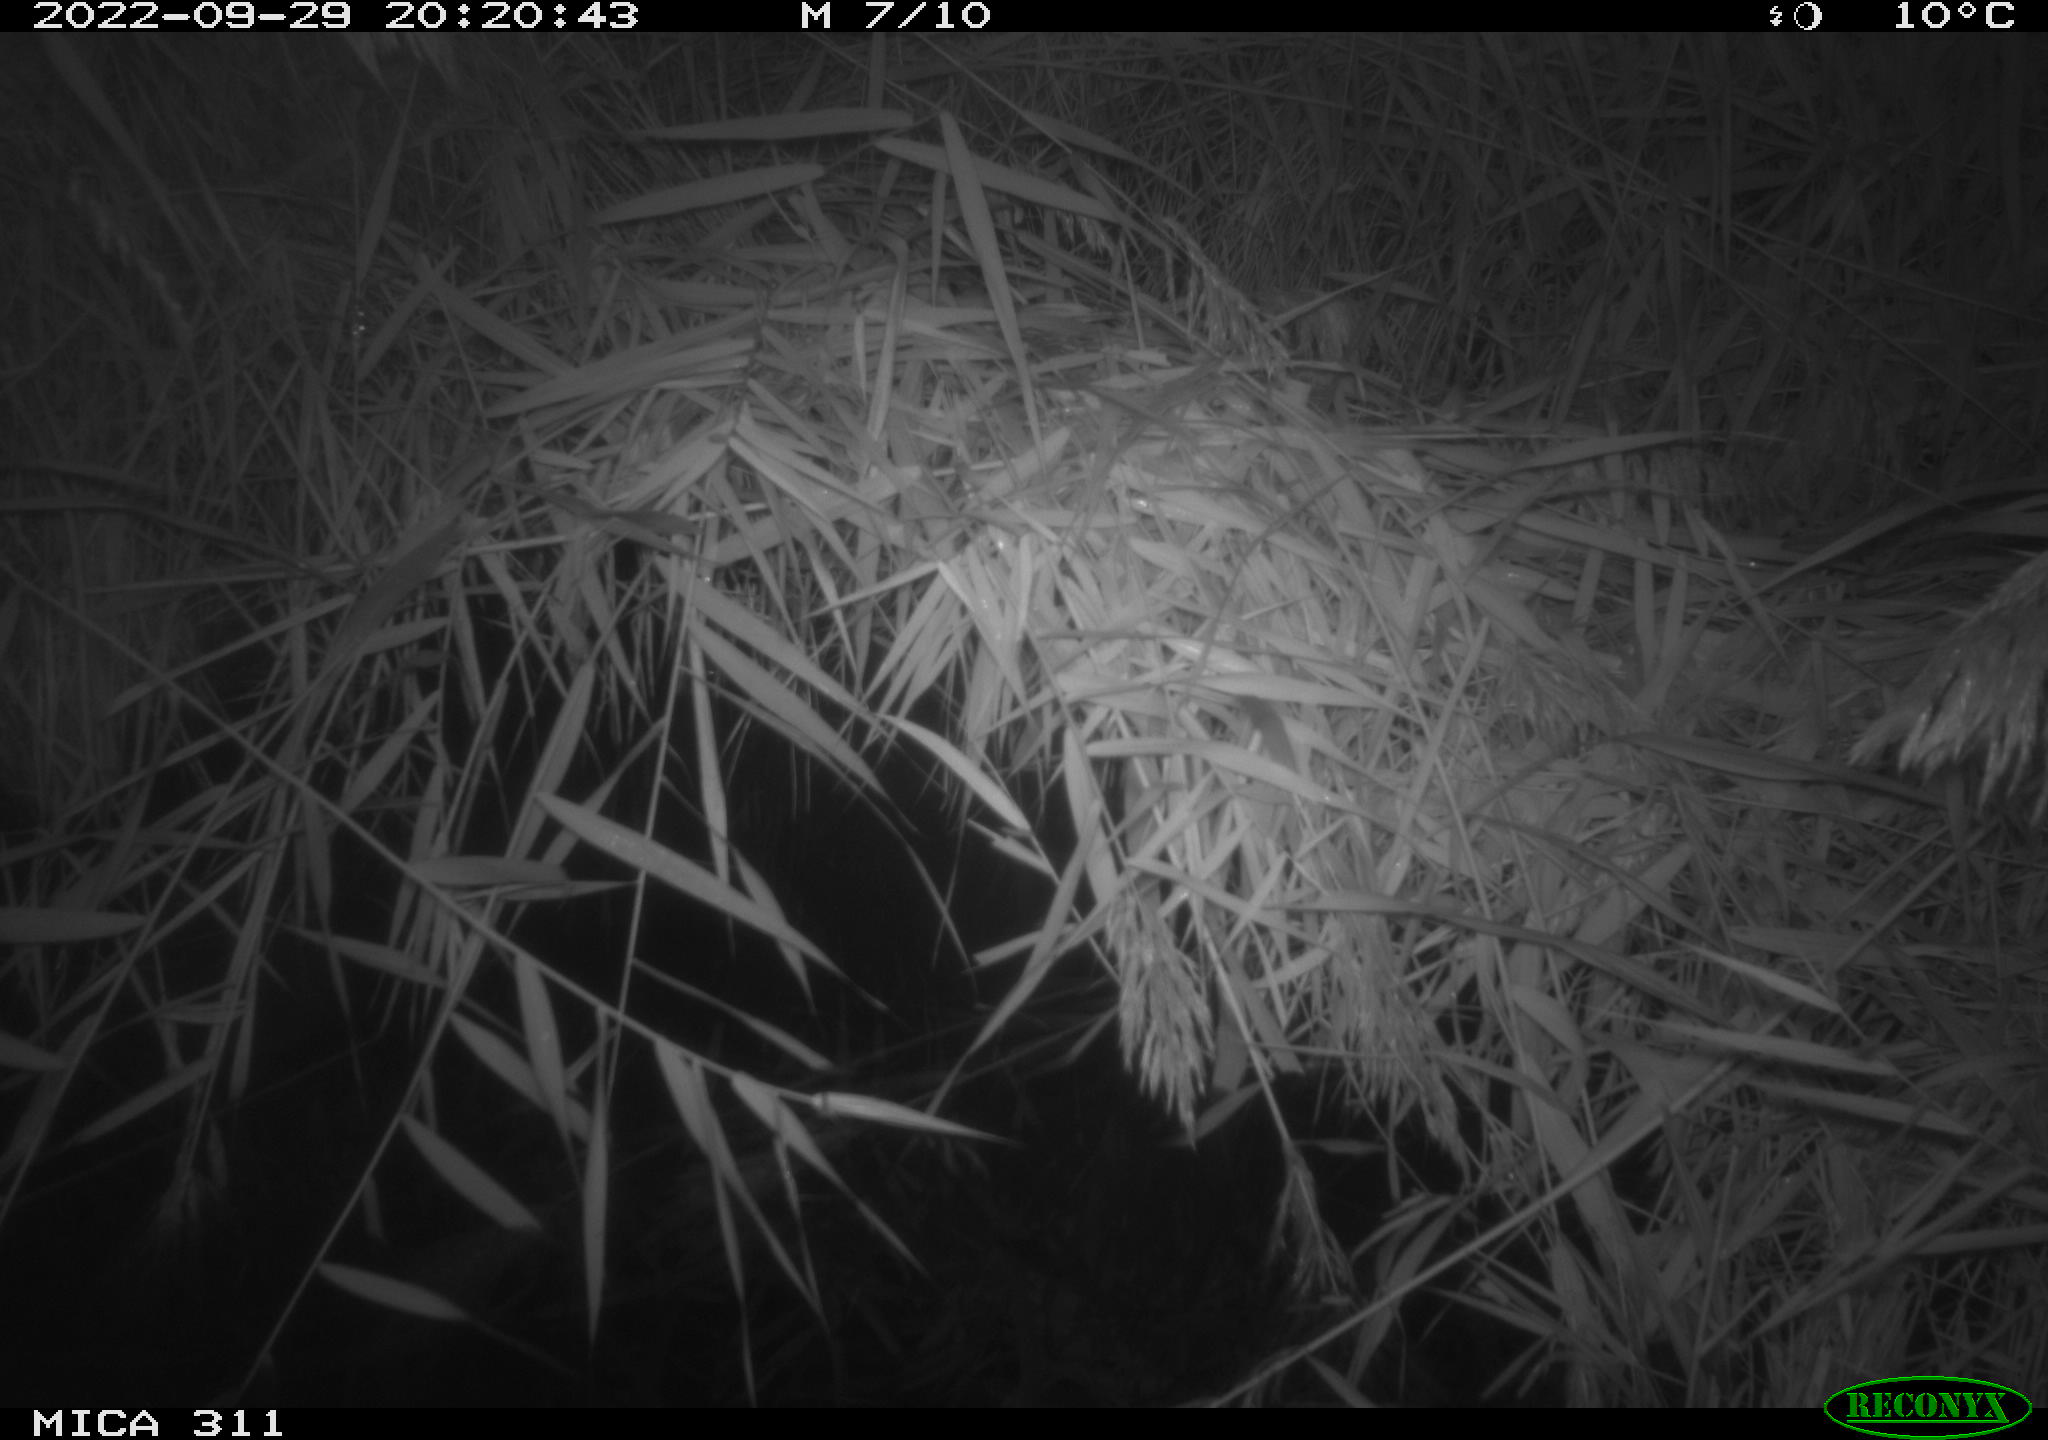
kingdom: Animalia
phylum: Chordata
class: Mammalia
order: Rodentia
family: Muridae
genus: Rattus
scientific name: Rattus norvegicus
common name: Brown rat
